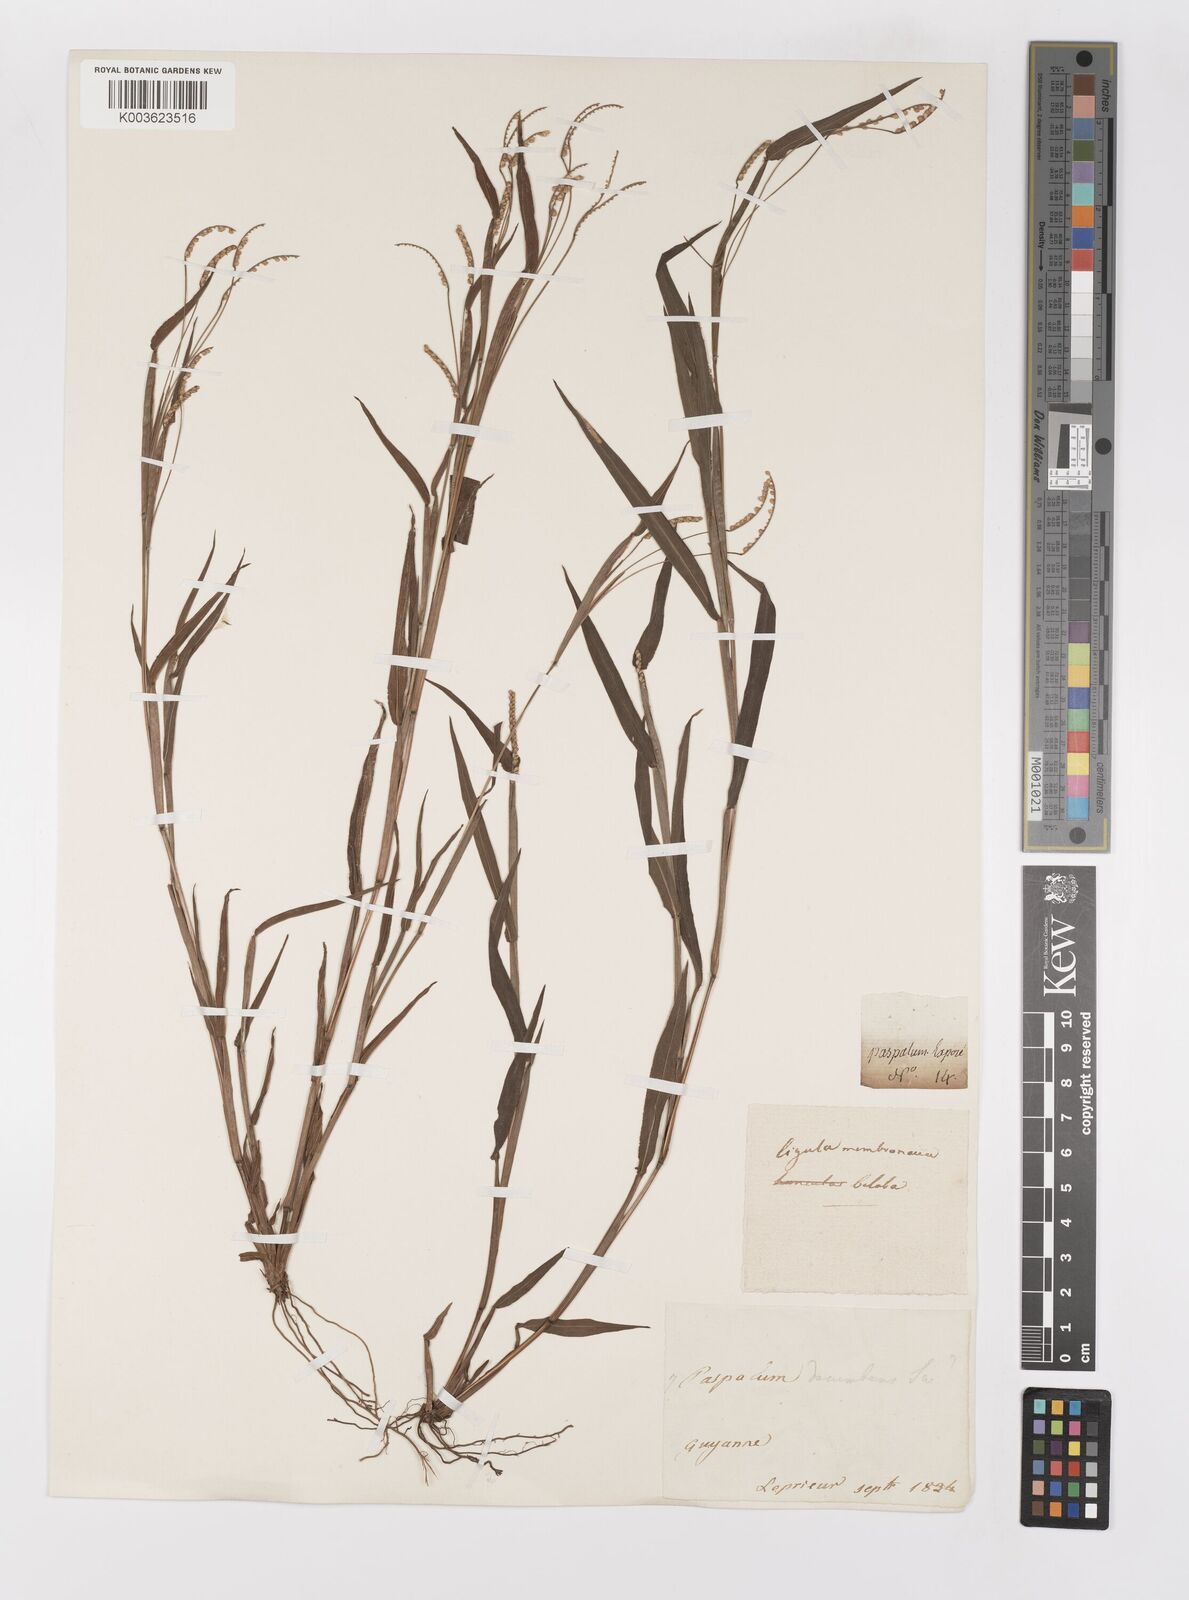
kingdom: Plantae
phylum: Tracheophyta
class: Liliopsida
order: Poales
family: Poaceae
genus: Paspalum
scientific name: Paspalum decumbens
